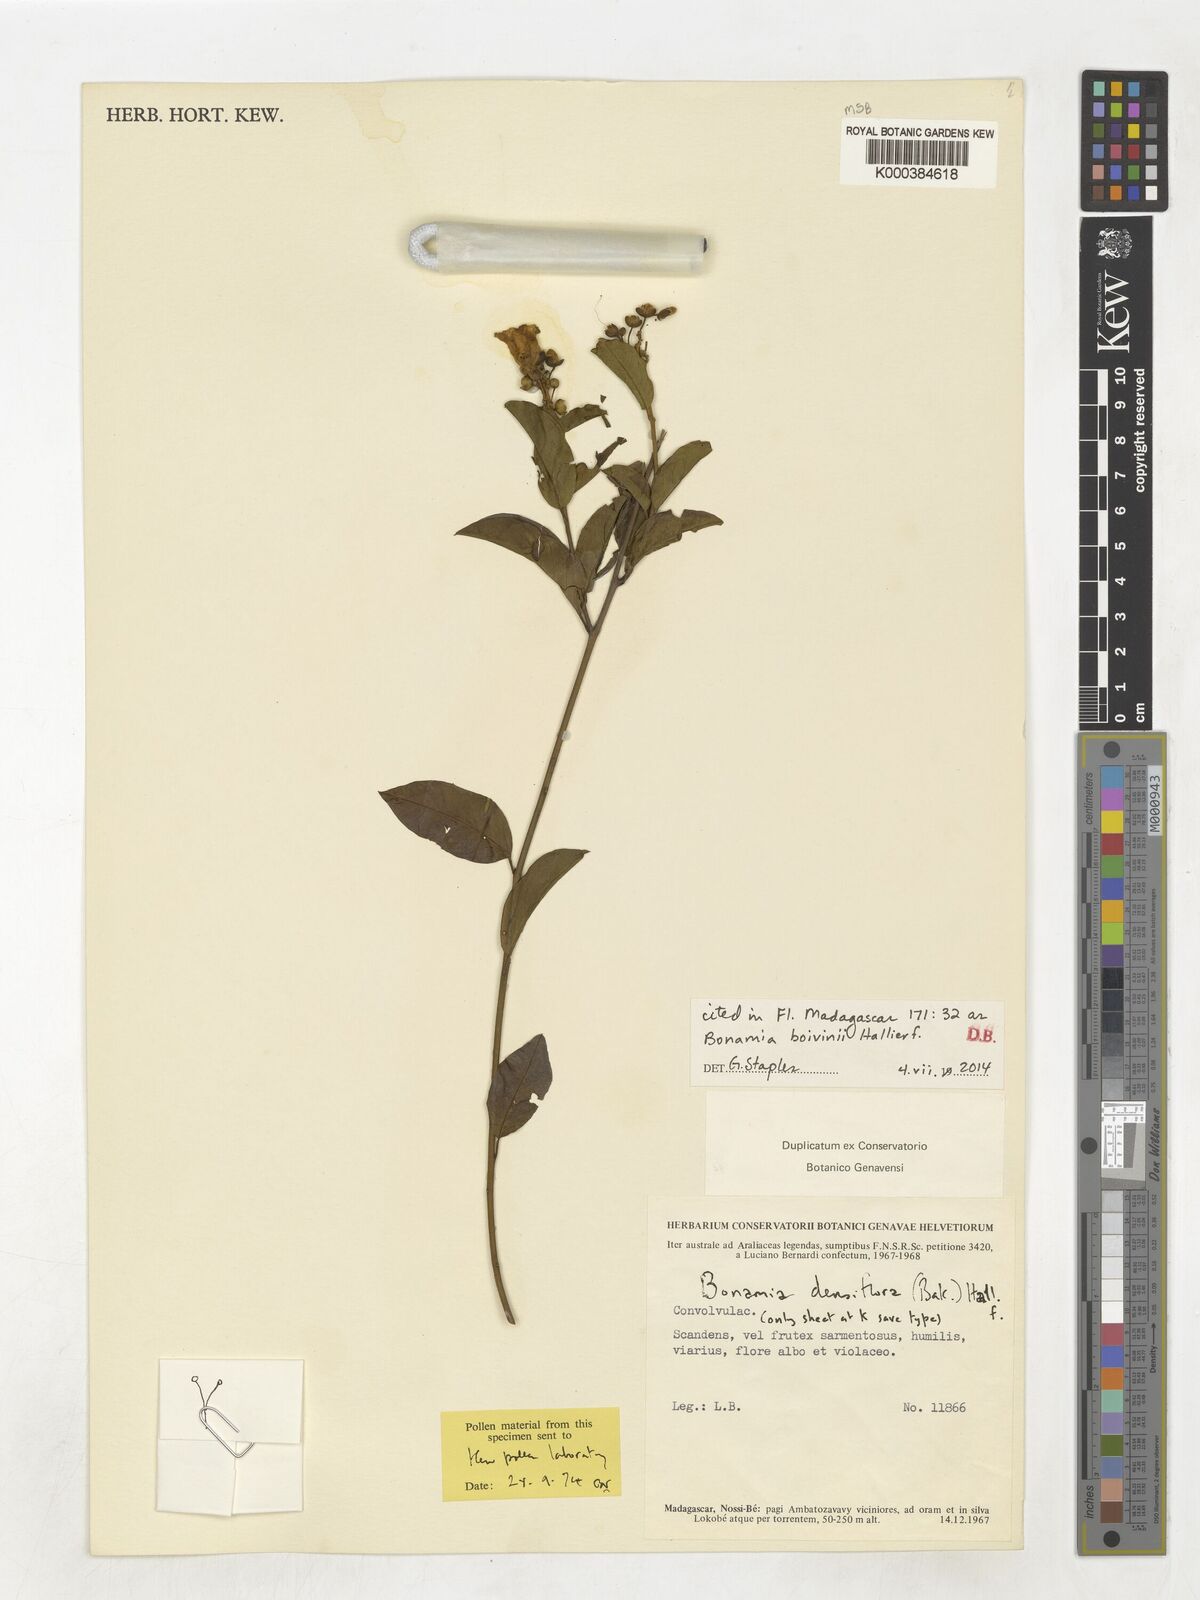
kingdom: Plantae
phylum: Tracheophyta
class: Magnoliopsida
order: Solanales
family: Convolvulaceae
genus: Bonamia
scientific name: Bonamia densiflora
